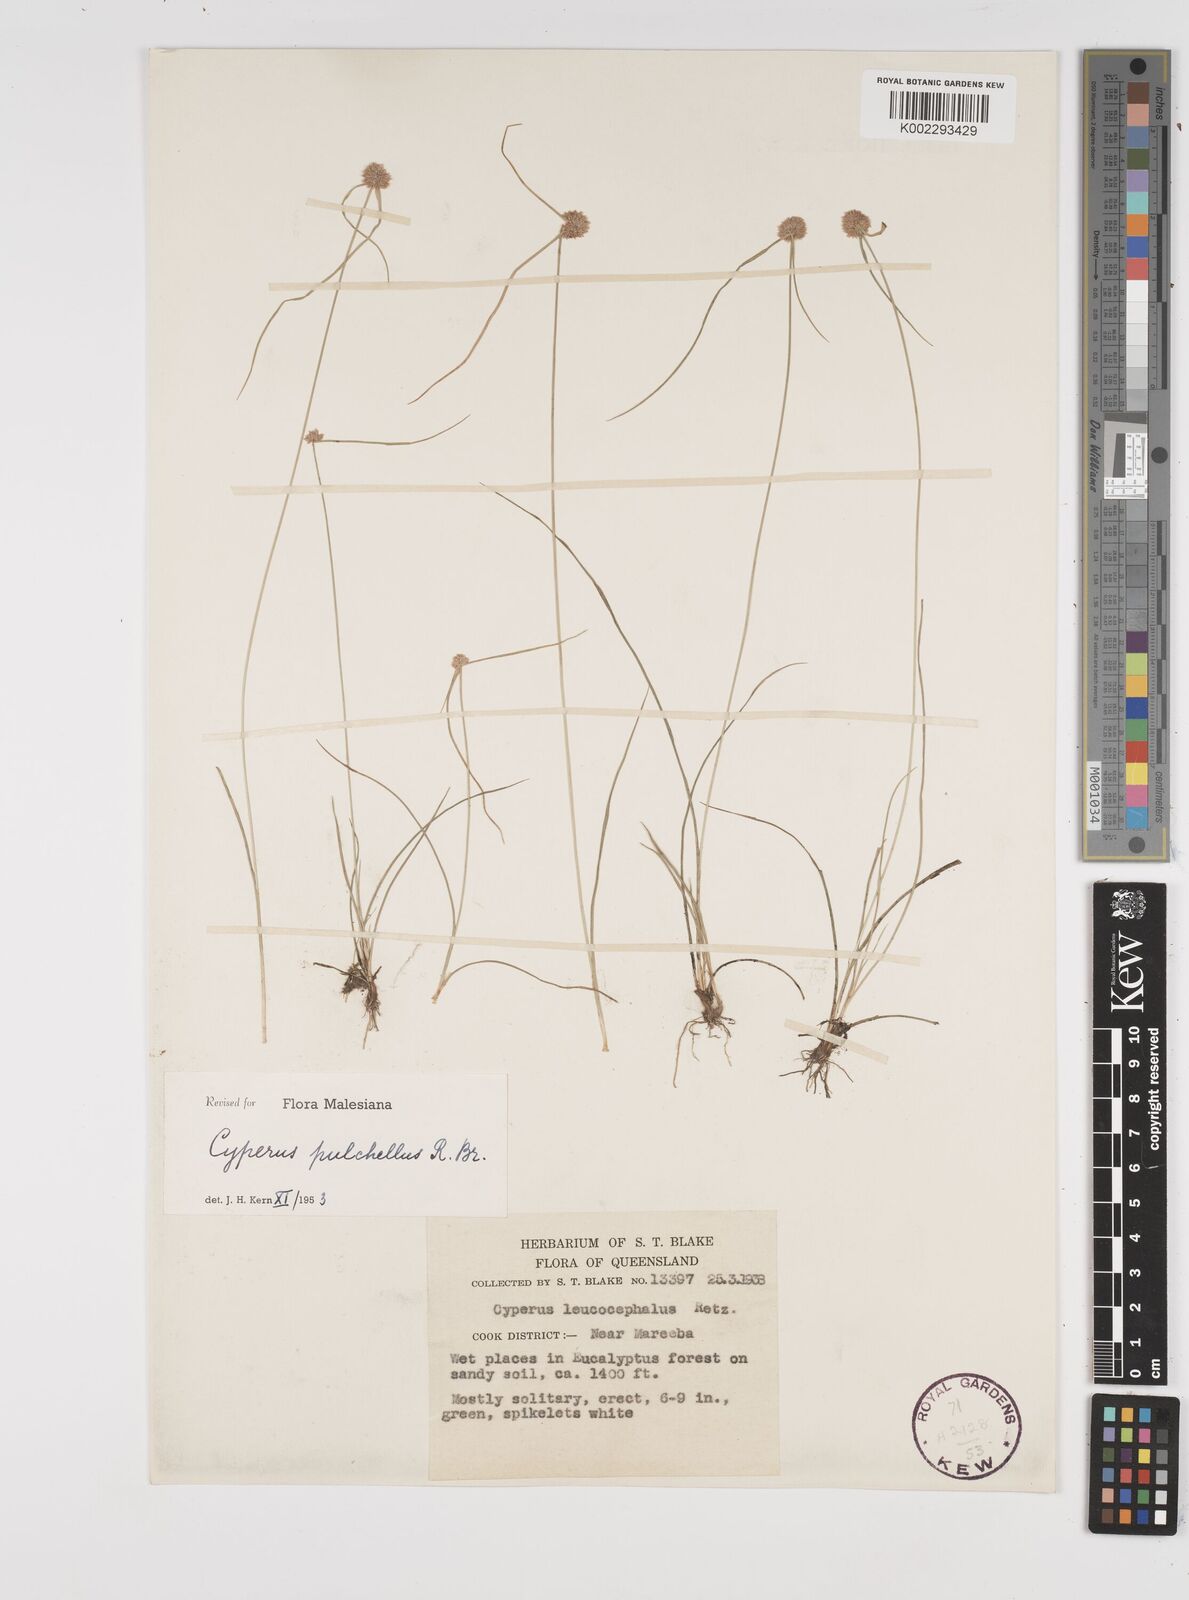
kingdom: Plantae
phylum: Tracheophyta
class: Liliopsida
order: Poales
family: Cyperaceae
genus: Cyperus
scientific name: Cyperus pulchellus
